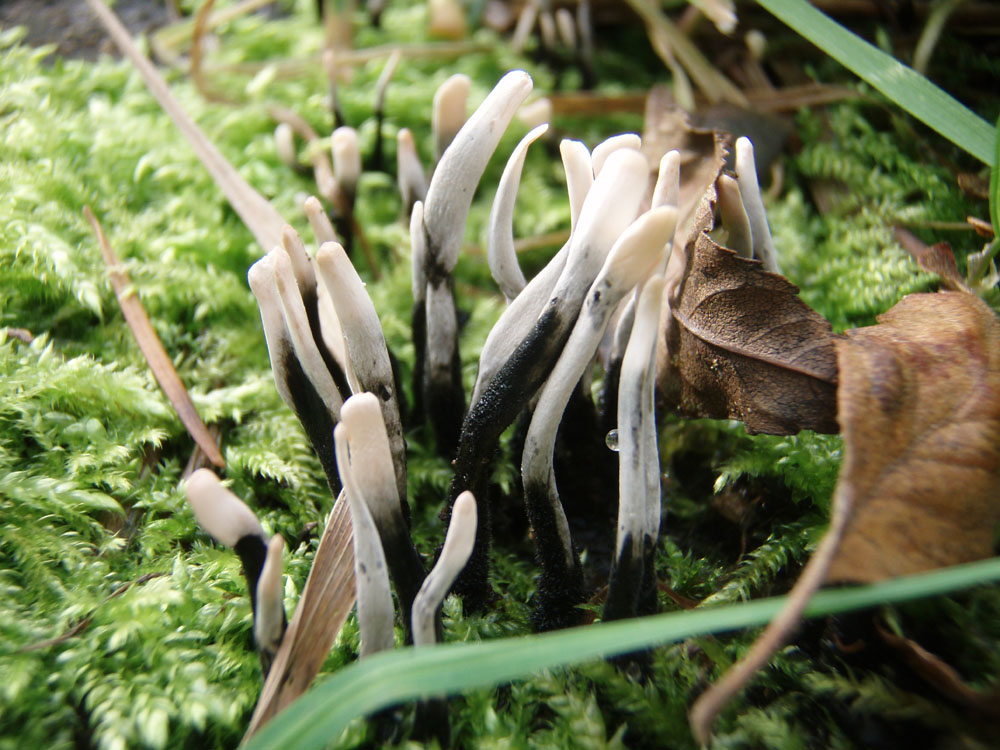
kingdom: Fungi
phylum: Ascomycota
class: Sordariomycetes
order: Xylariales
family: Xylariaceae
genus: Xylaria
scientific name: Xylaria hypoxylon
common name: grenet stødsvamp
